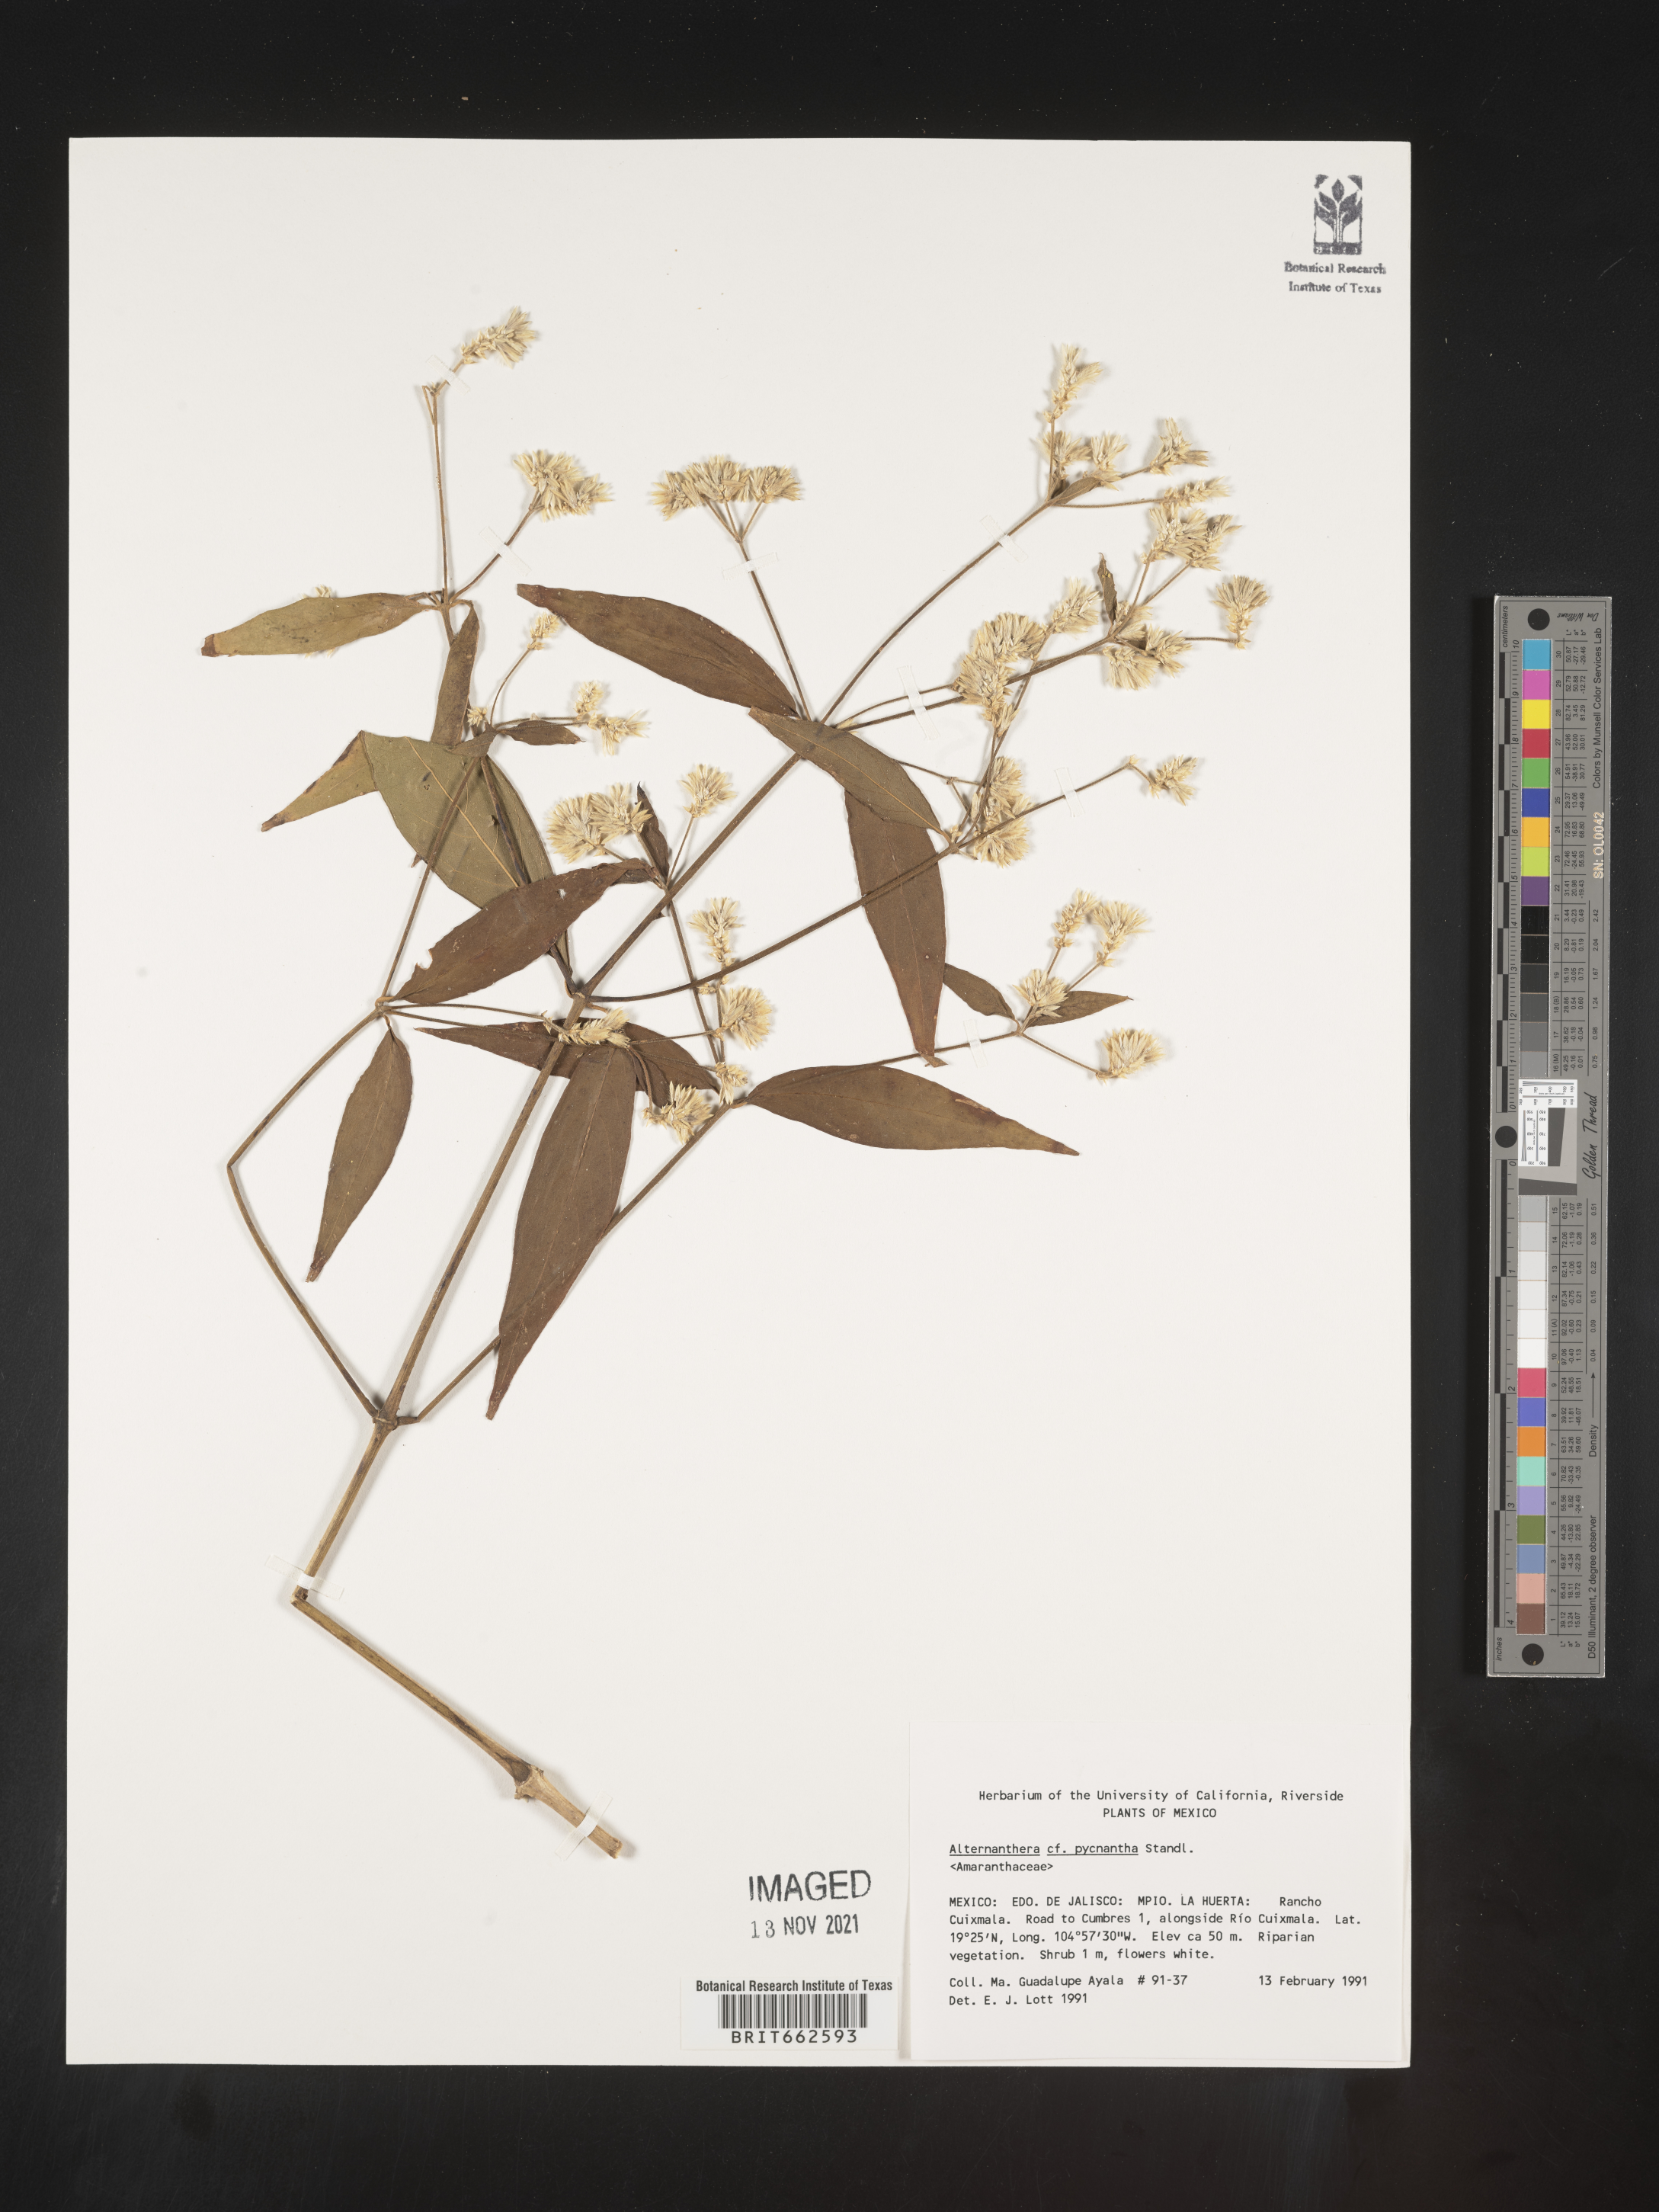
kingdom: Plantae
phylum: Tracheophyta
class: Magnoliopsida
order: Caryophyllales
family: Amaranthaceae
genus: Alternanthera
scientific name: Alternanthera
